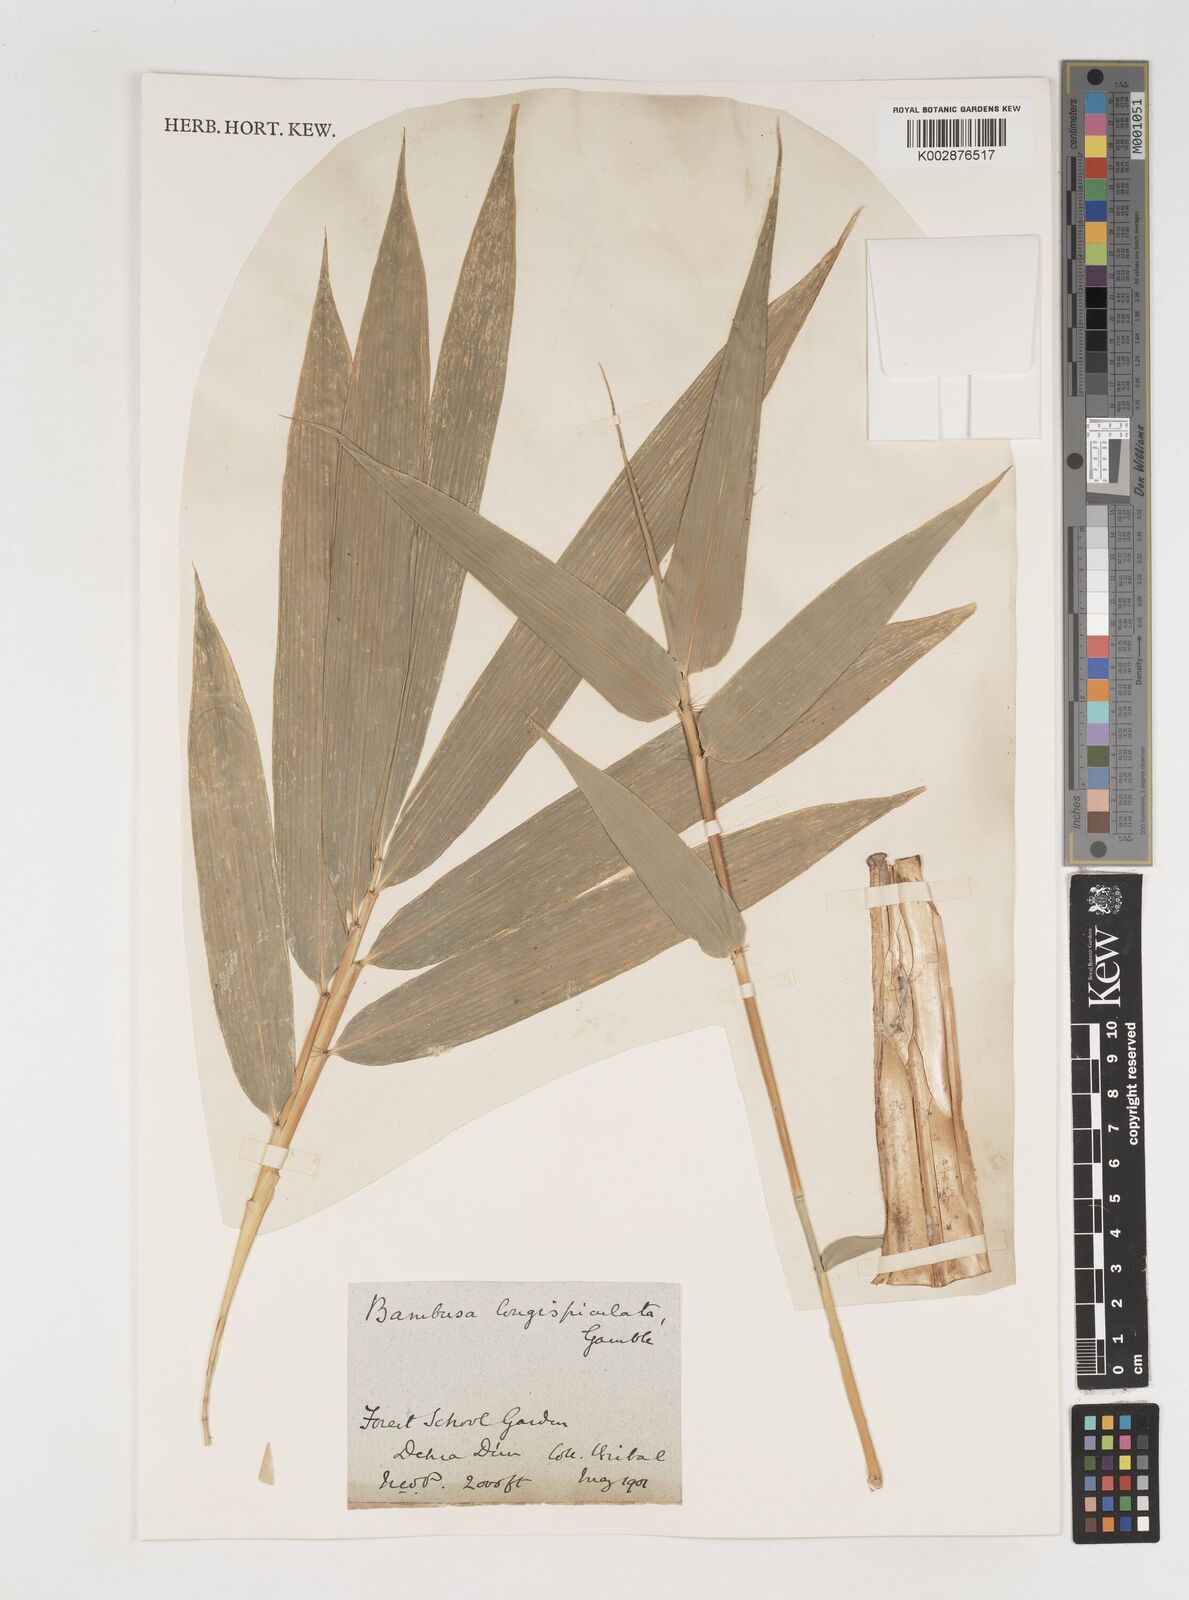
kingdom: Plantae
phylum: Tracheophyta
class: Liliopsida
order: Poales
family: Poaceae
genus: Bambusa
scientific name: Bambusa longispiculata
